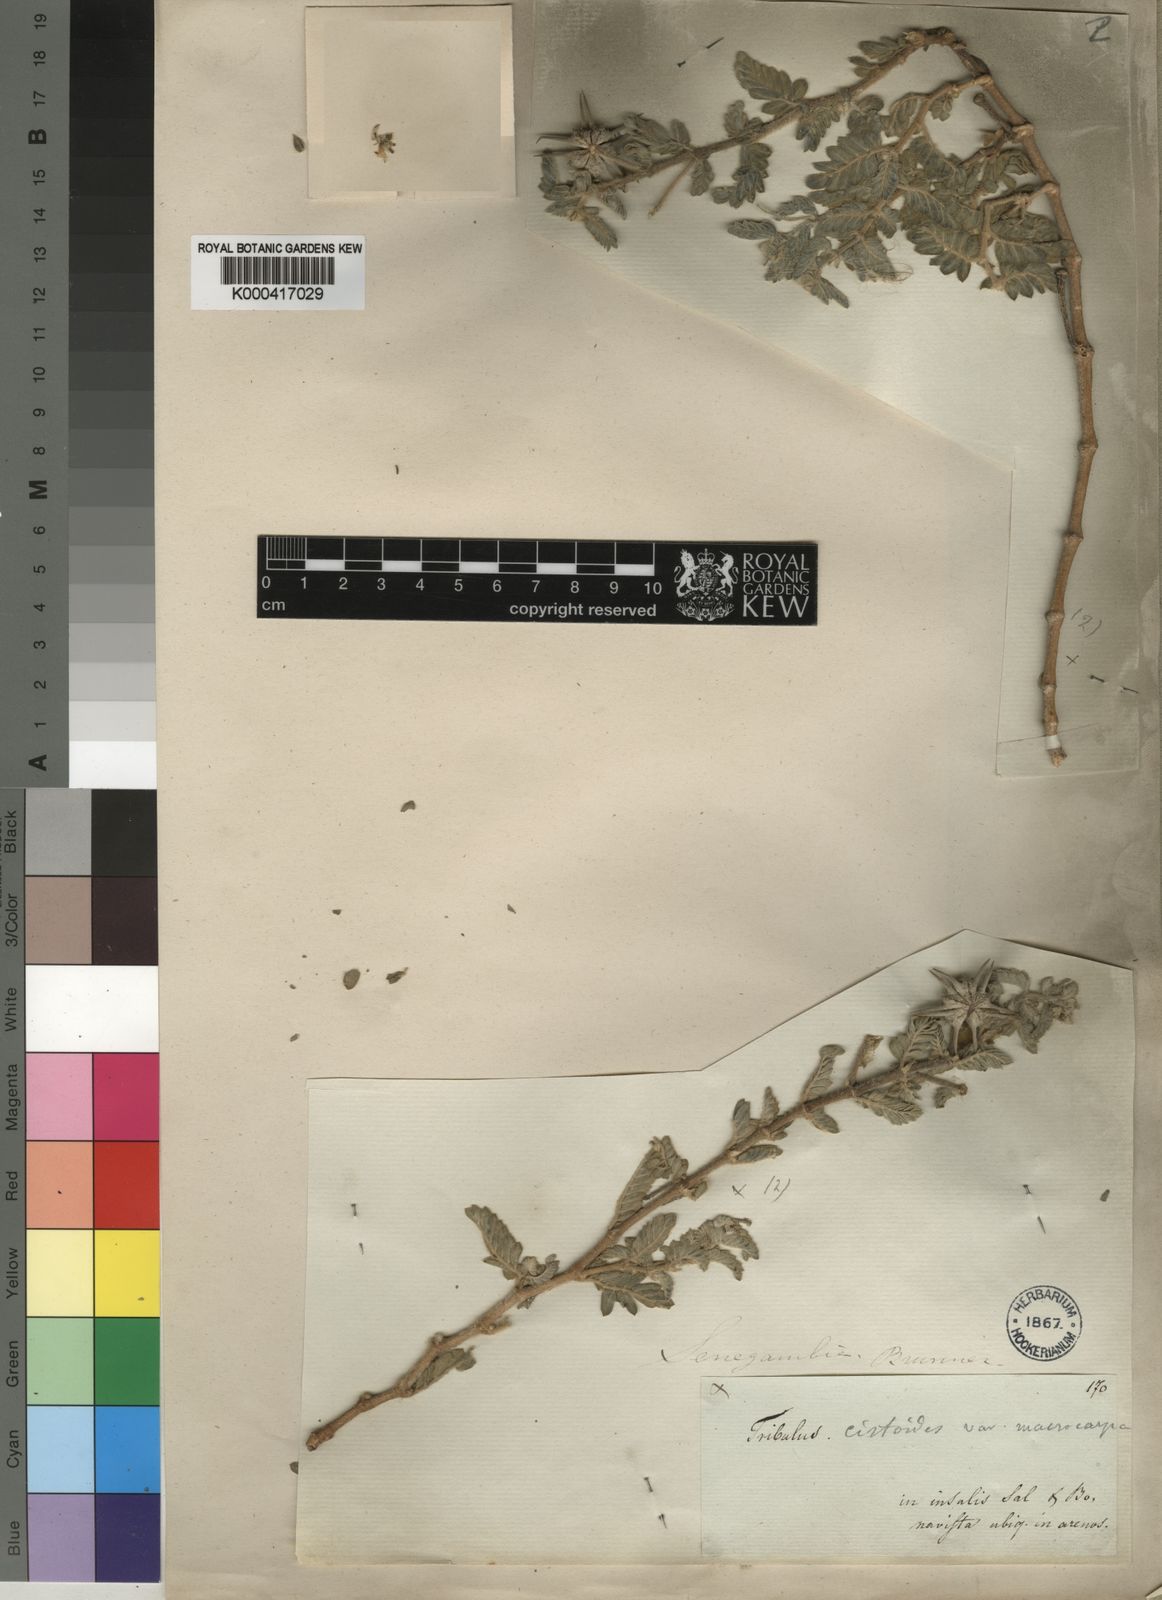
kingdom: Plantae
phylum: Tracheophyta
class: Magnoliopsida
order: Zygophyllales
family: Zygophyllaceae
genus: Tribulus
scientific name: Tribulus cistoides
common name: Jamaican feverplant
